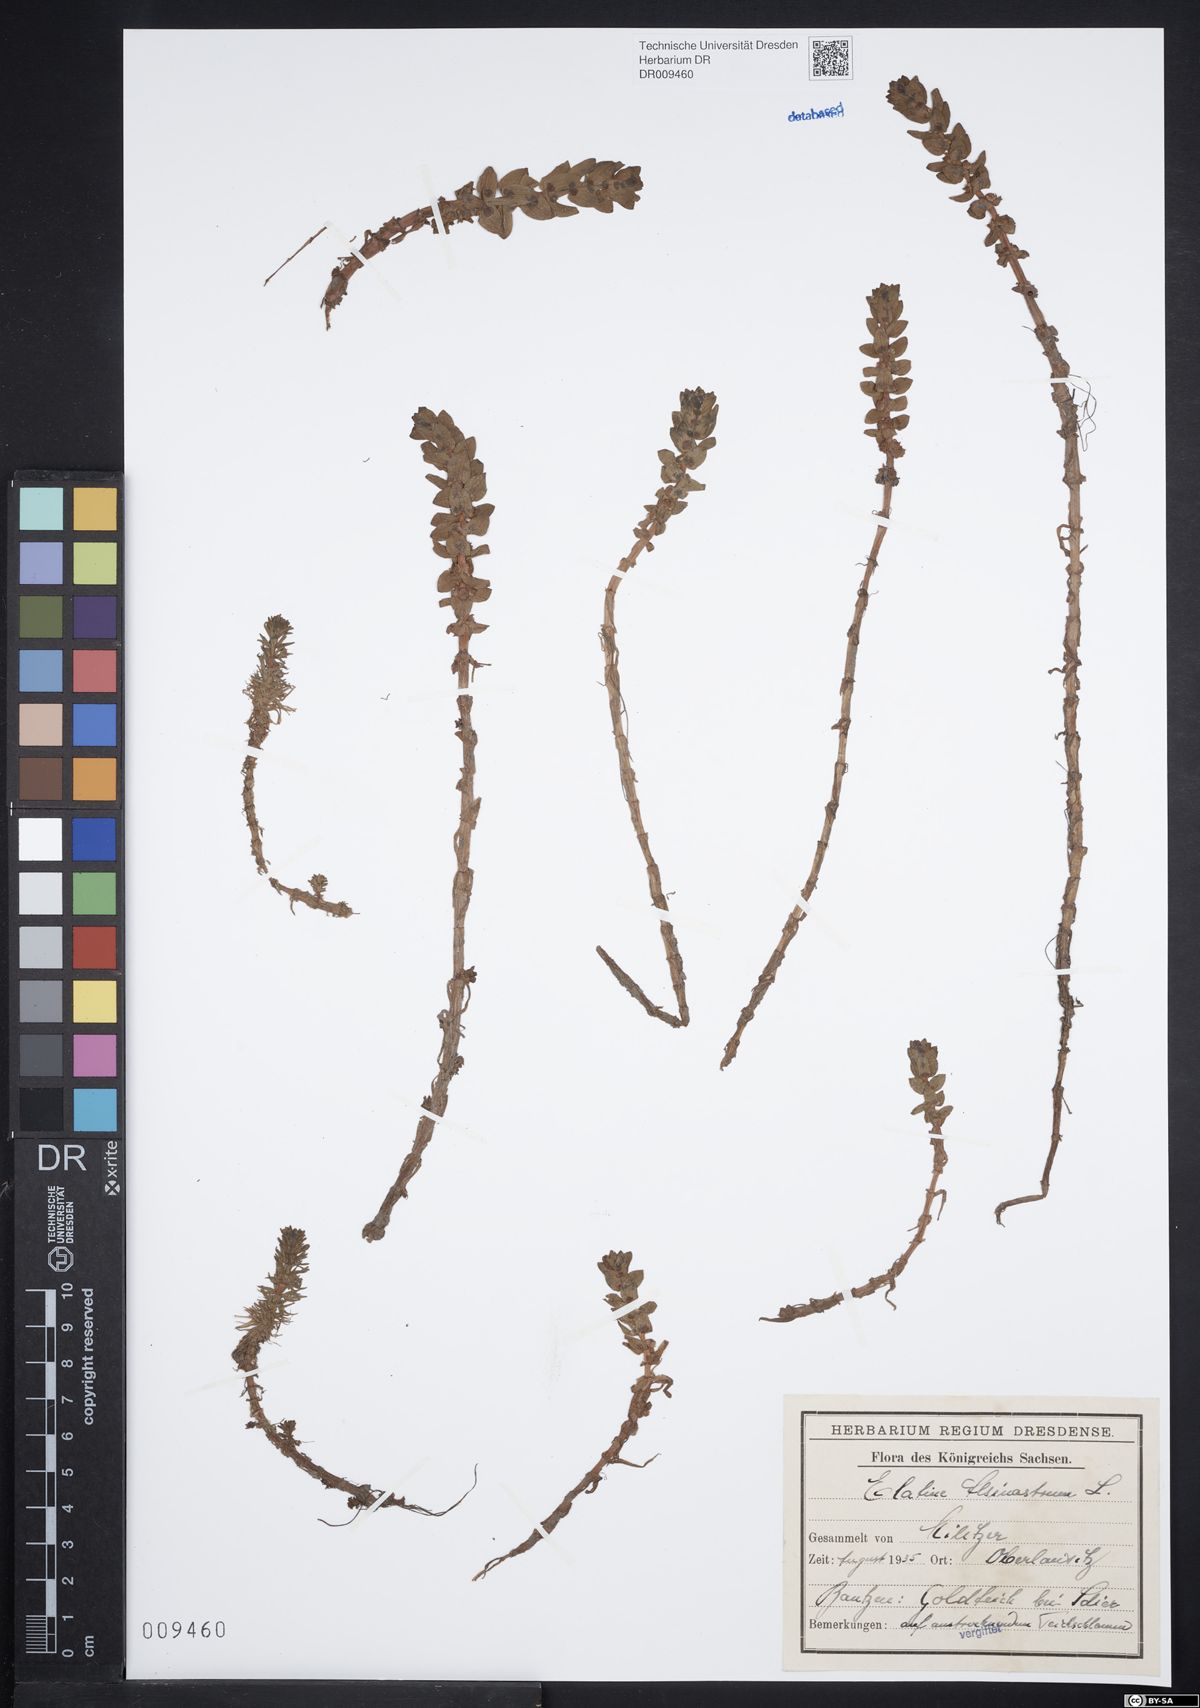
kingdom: Plantae
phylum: Tracheophyta
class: Magnoliopsida
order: Malpighiales
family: Elatinaceae
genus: Elatine
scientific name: Elatine alsinastrum
